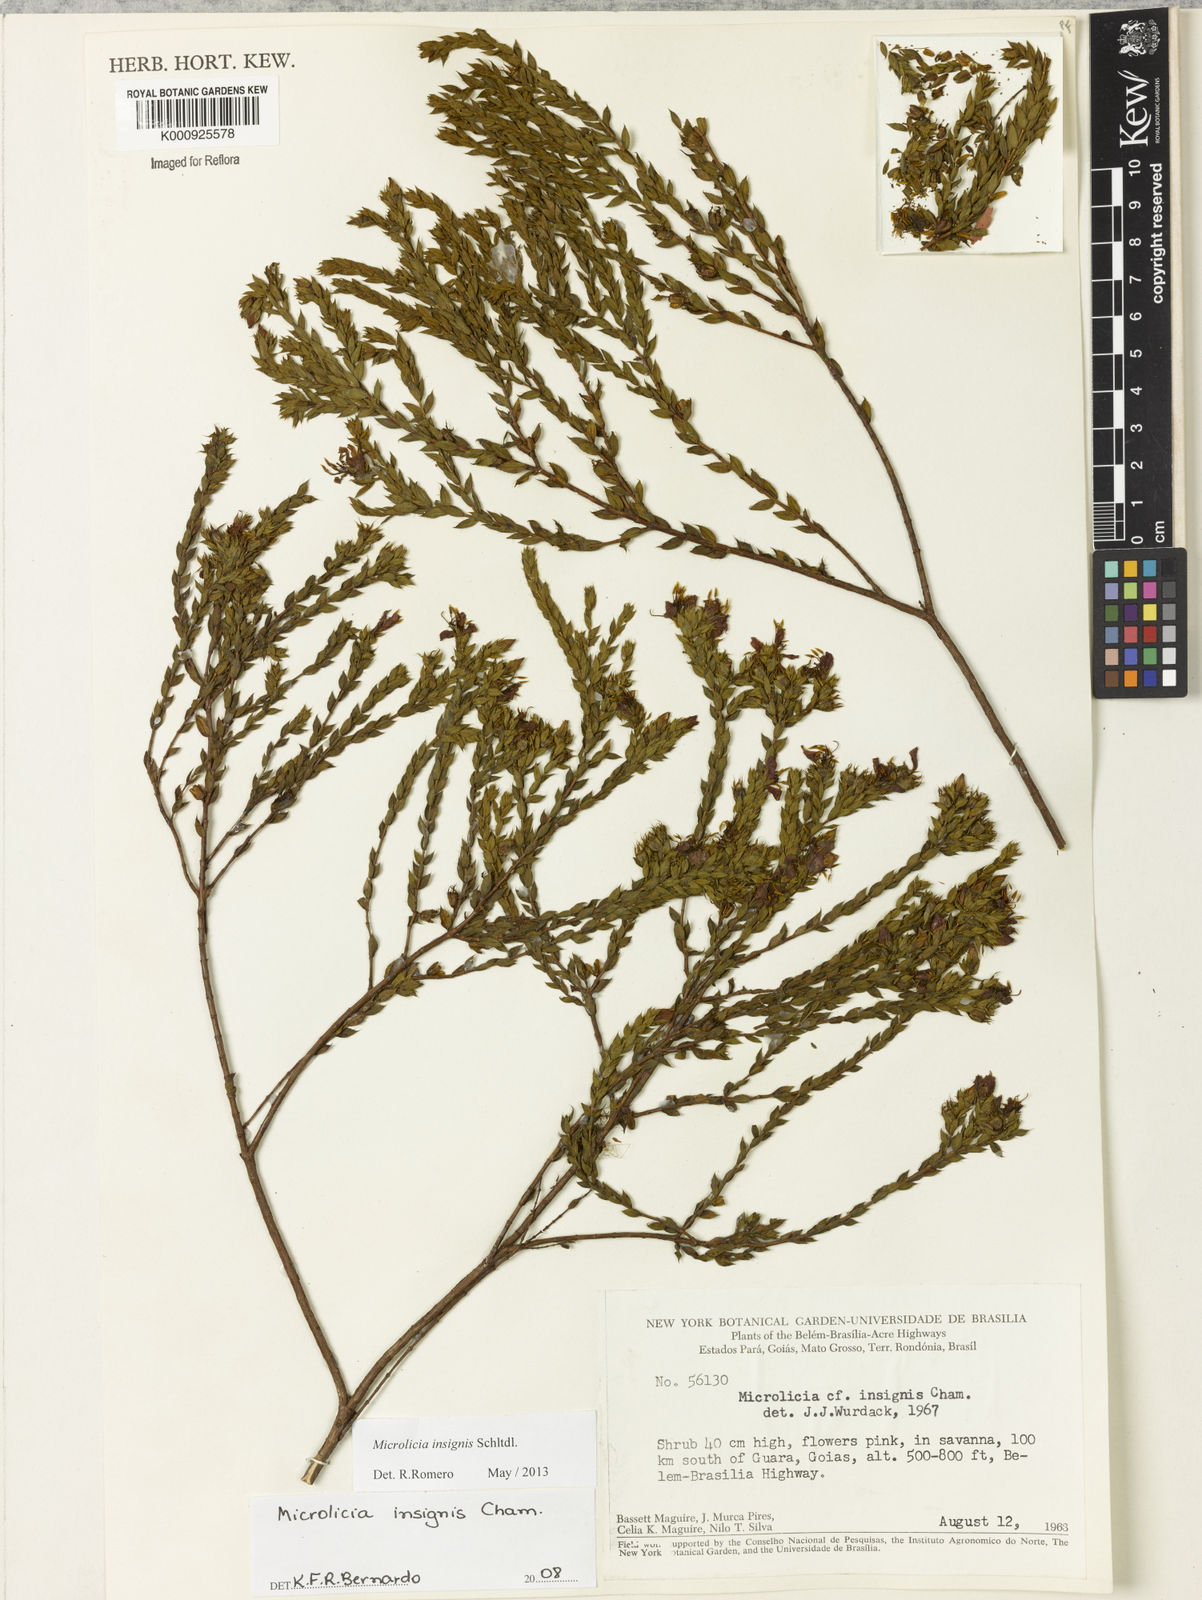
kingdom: Plantae
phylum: Tracheophyta
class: Magnoliopsida
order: Myrtales
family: Melastomataceae
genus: Microlicia
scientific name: Microlicia
